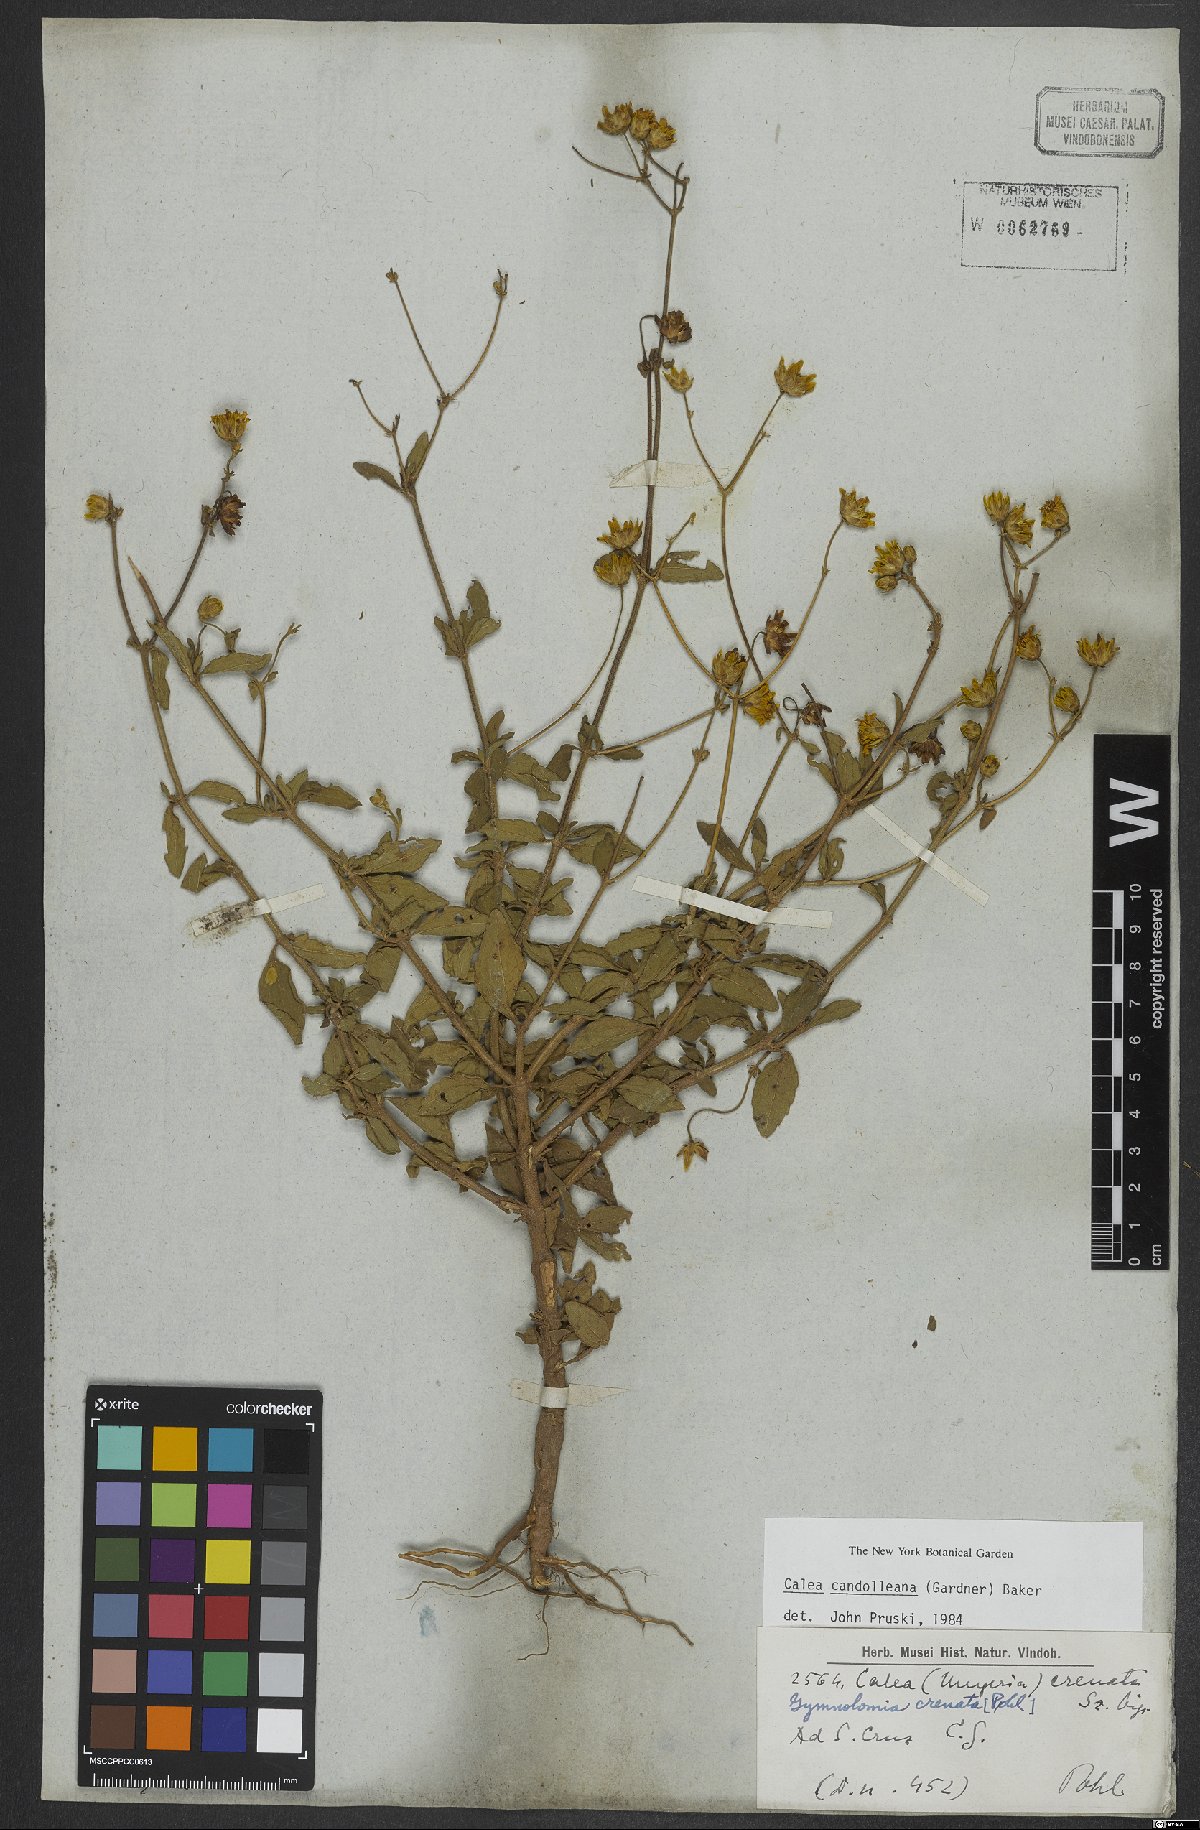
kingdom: Plantae
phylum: Tracheophyta
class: Magnoliopsida
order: Asterales
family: Asteraceae
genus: Calea
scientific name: Calea candolleana
